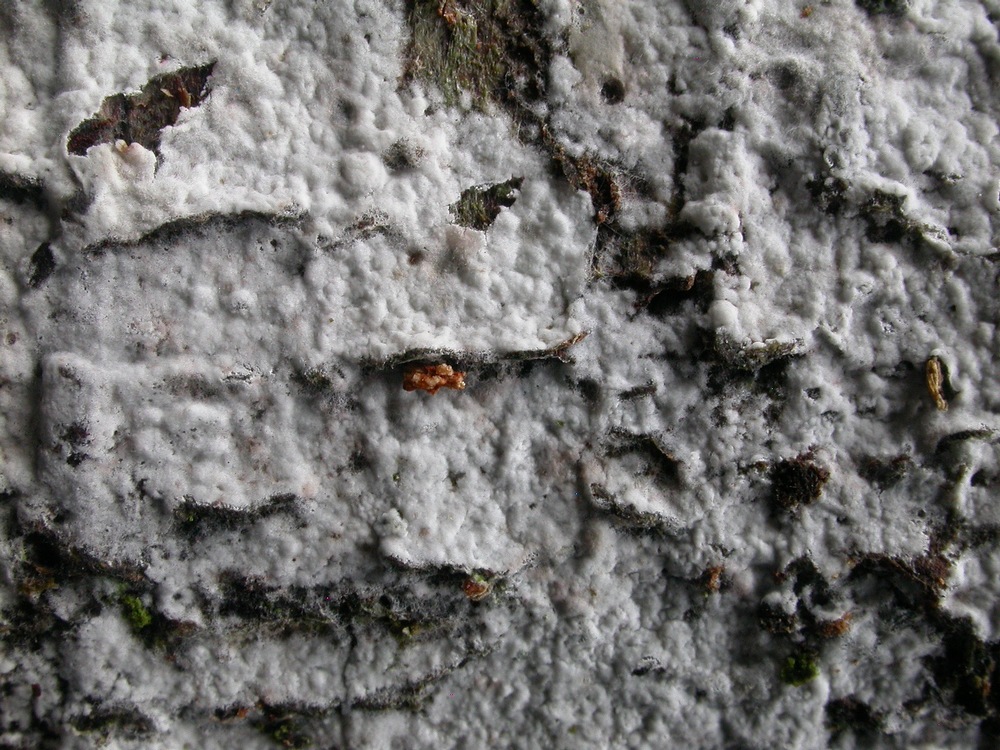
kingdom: Fungi
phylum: Basidiomycota
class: Agaricomycetes
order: Atheliales
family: Atheliaceae
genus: Athelia
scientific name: Athelia epiphylla
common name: almindelig barkhinde
